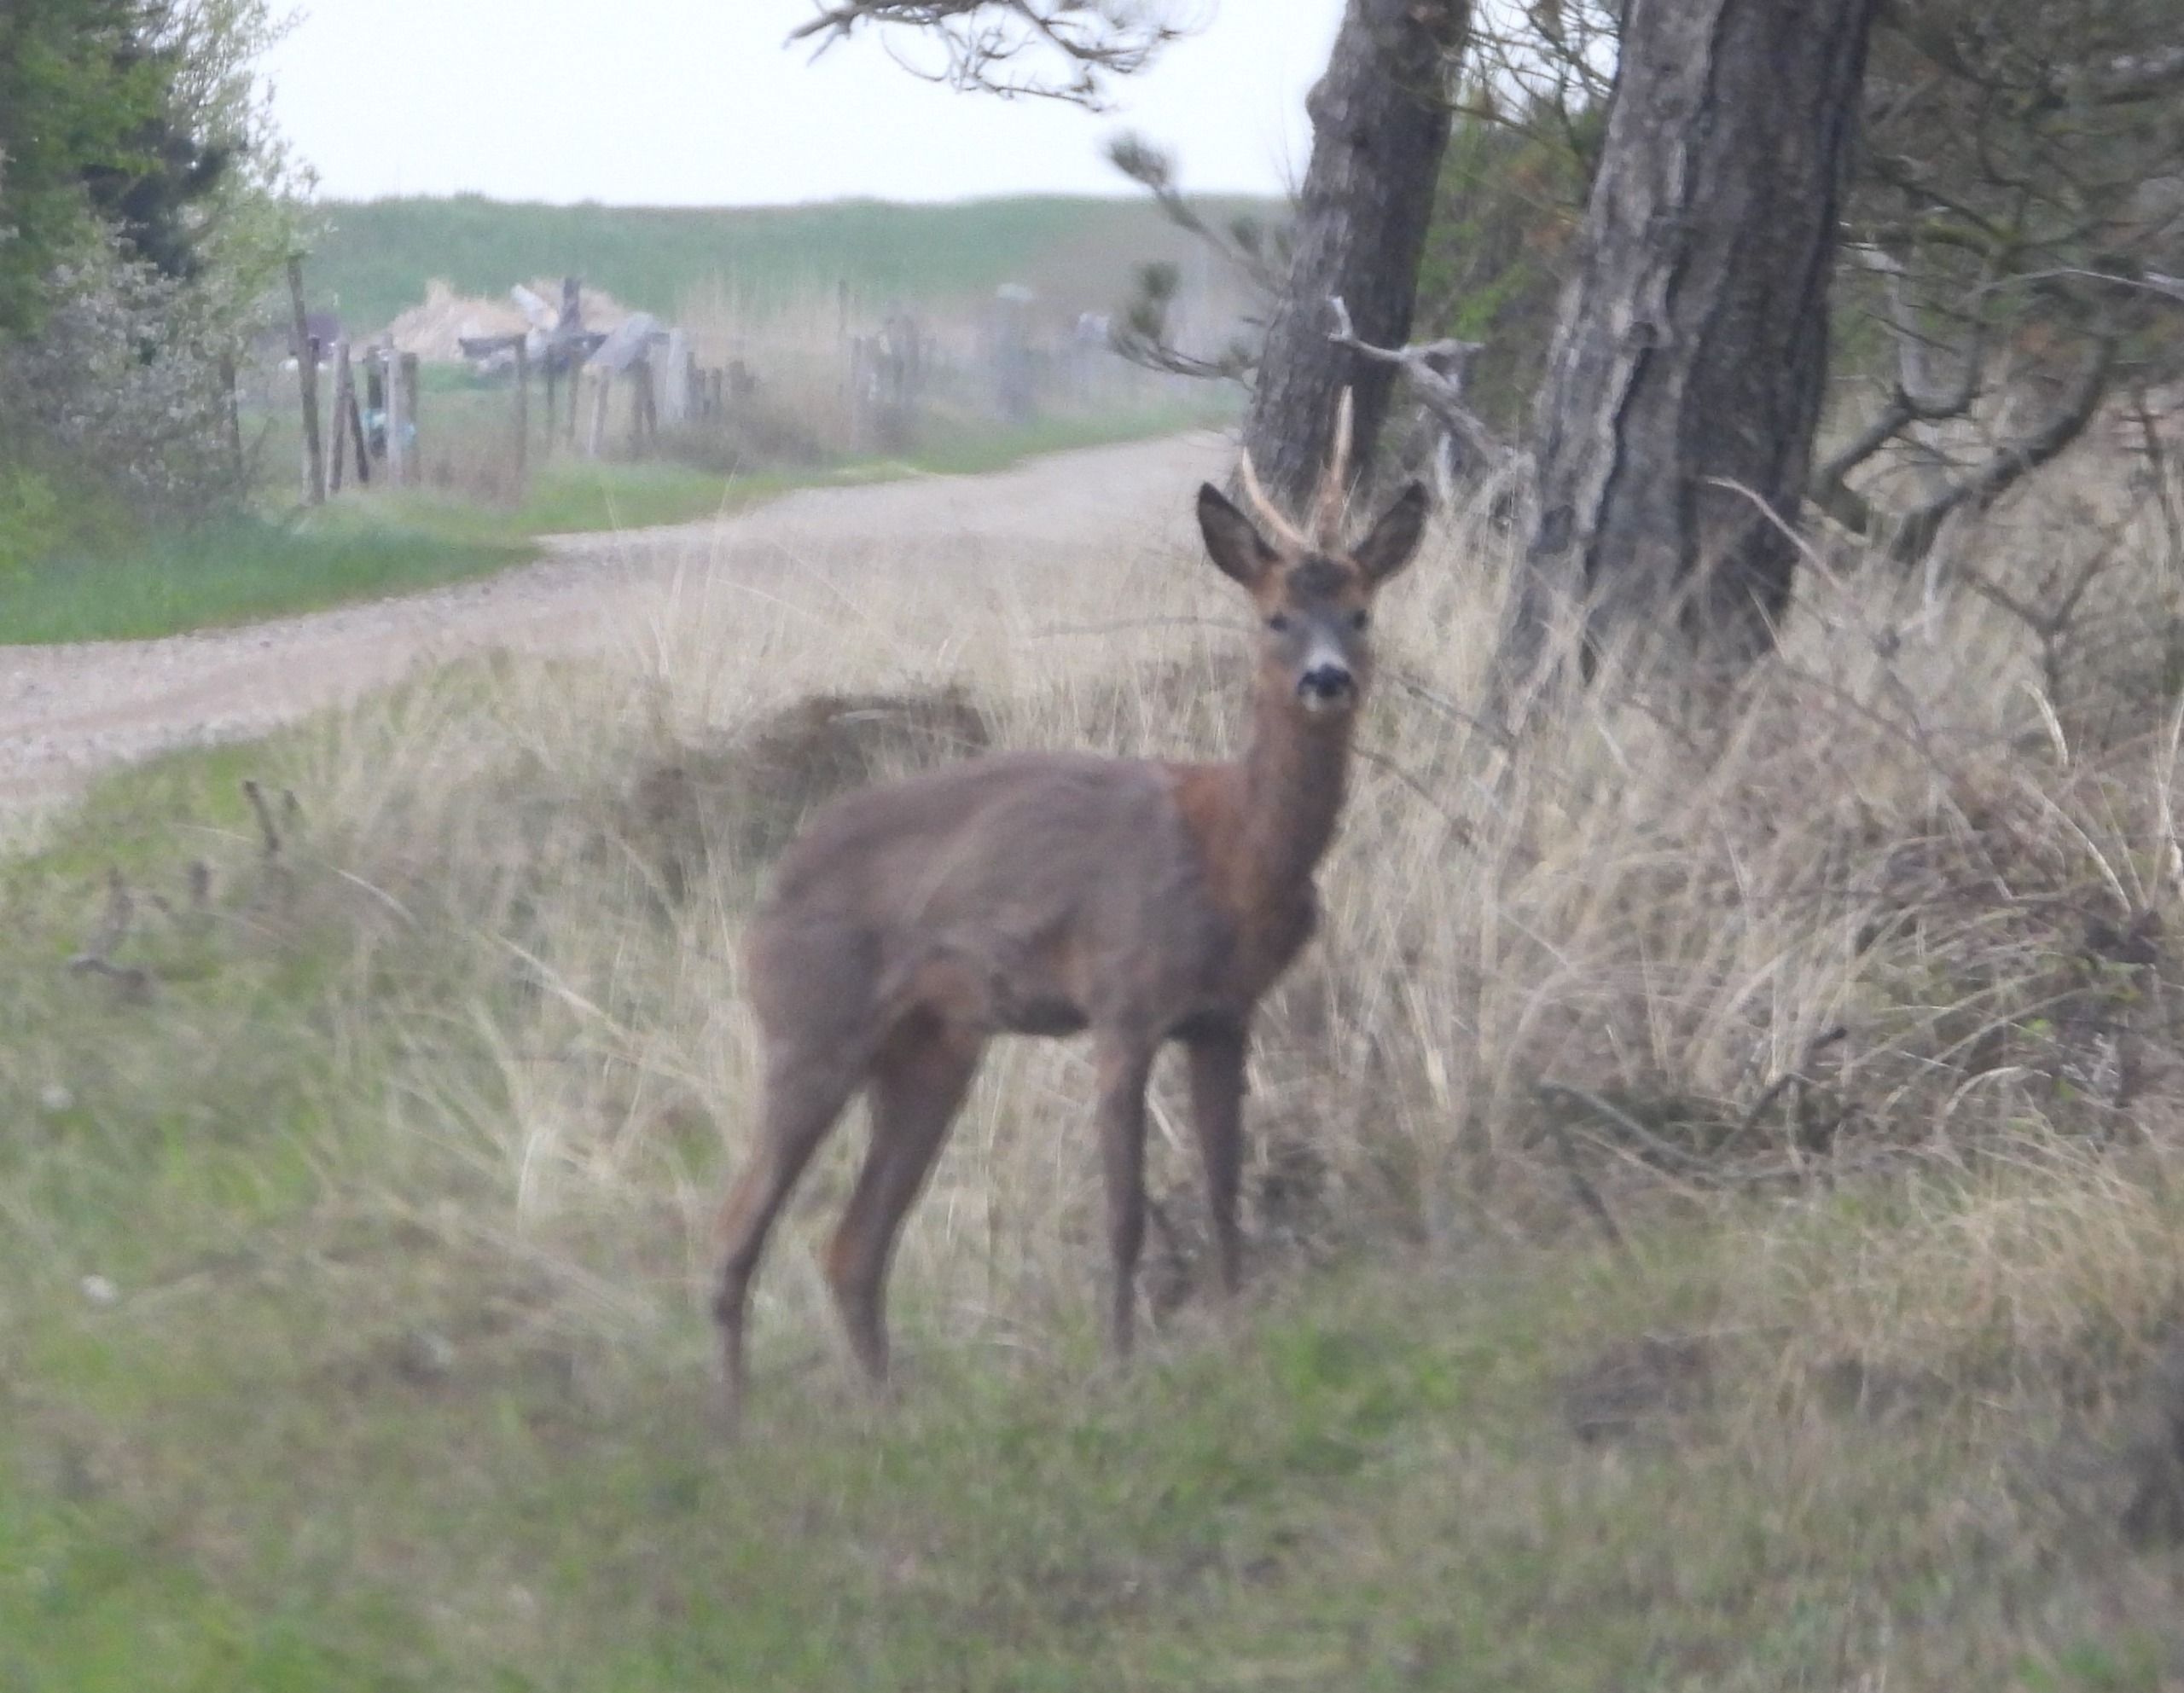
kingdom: Animalia
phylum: Chordata
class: Mammalia
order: Artiodactyla
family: Cervidae
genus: Capreolus
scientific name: Capreolus capreolus
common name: Rådyr
